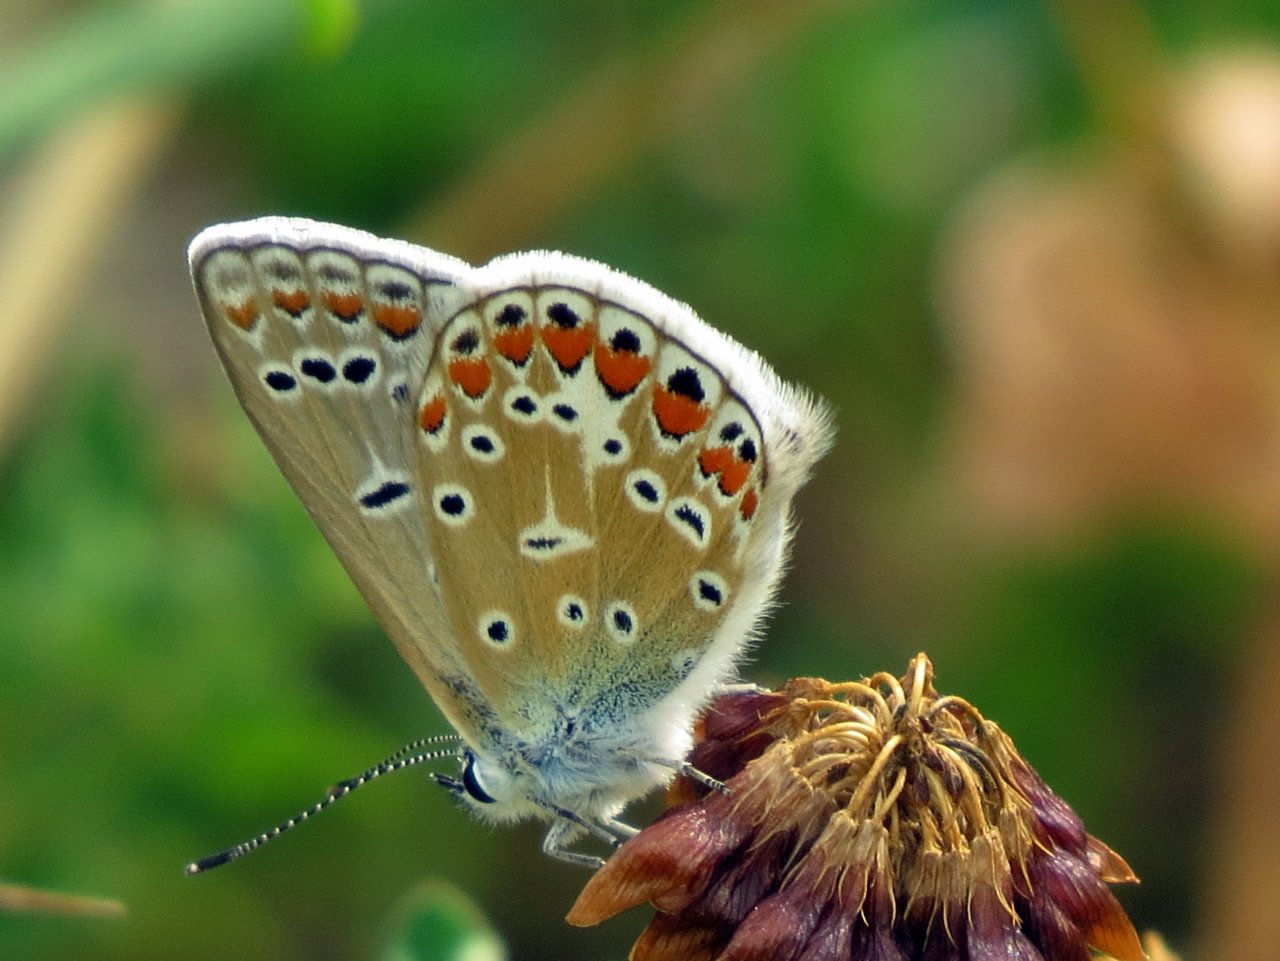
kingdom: Animalia
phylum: Arthropoda
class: Insecta
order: Lepidoptera
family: Lycaenidae
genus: Polyommatus
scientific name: Polyommatus icarus
